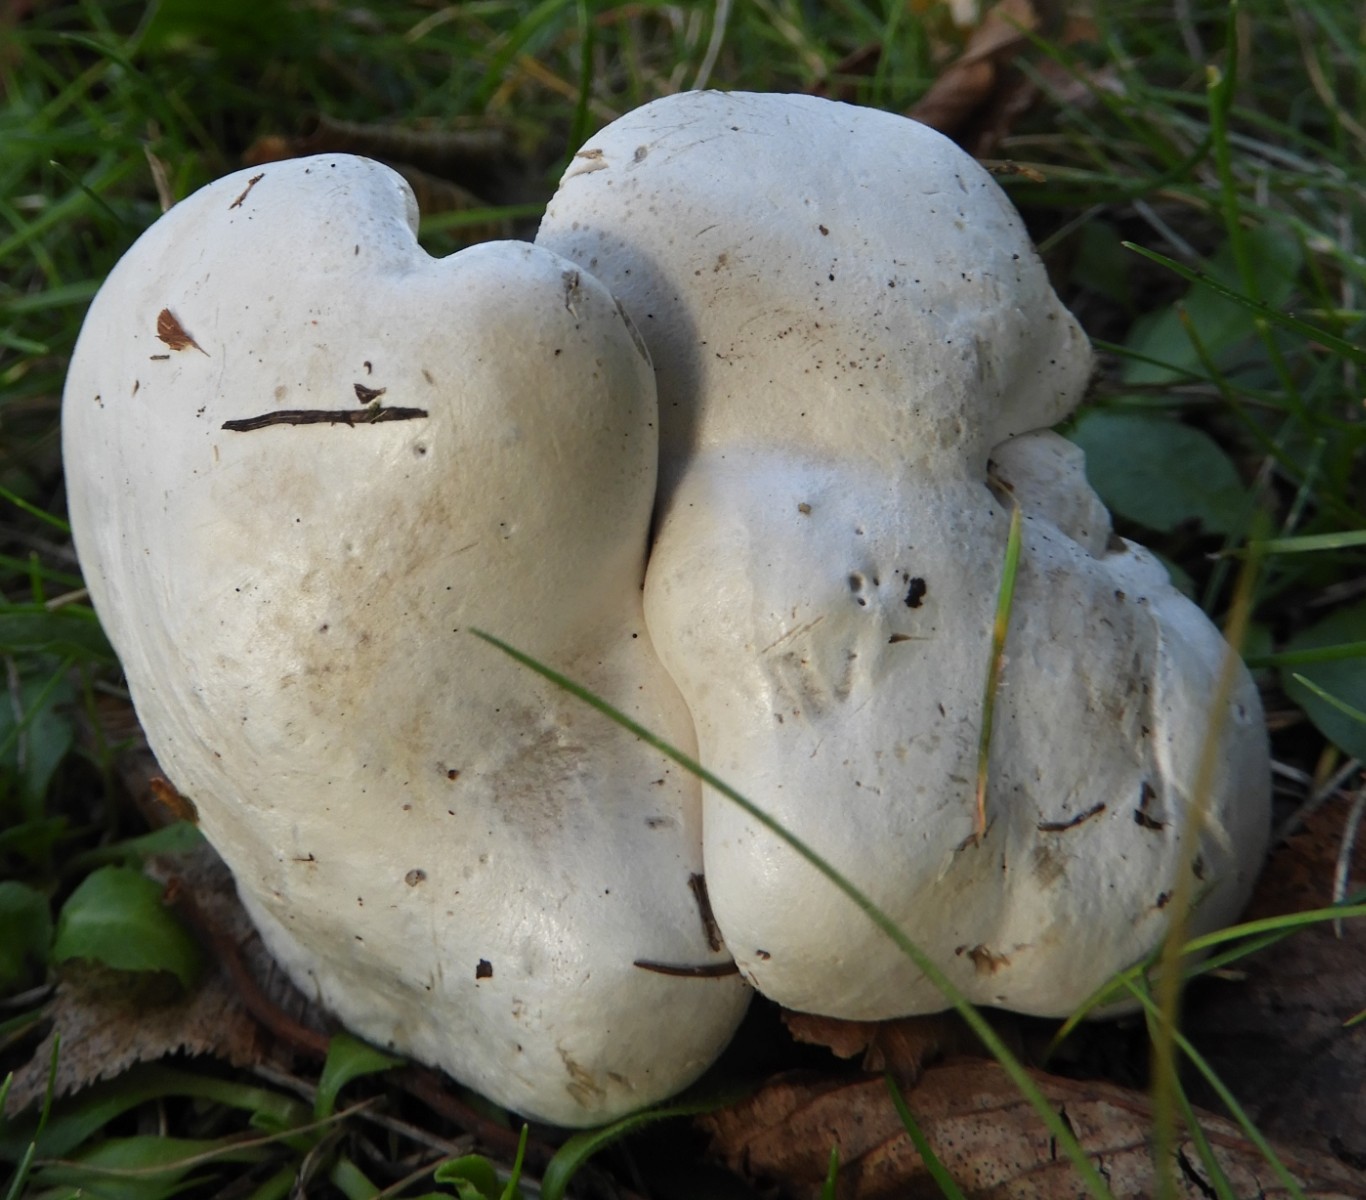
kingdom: Fungi
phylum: Basidiomycota
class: Agaricomycetes
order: Agaricales
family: Entolomataceae
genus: Clitopilus
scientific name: Clitopilus prunulus
